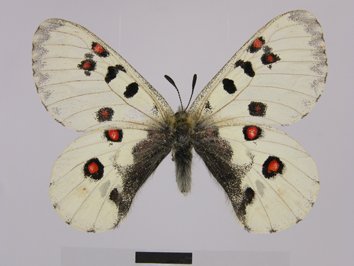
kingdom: Animalia
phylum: Arthropoda
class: Insecta
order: Lepidoptera
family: Papilionidae
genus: Parnassius
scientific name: Parnassius actius
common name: Scarce red apollo
